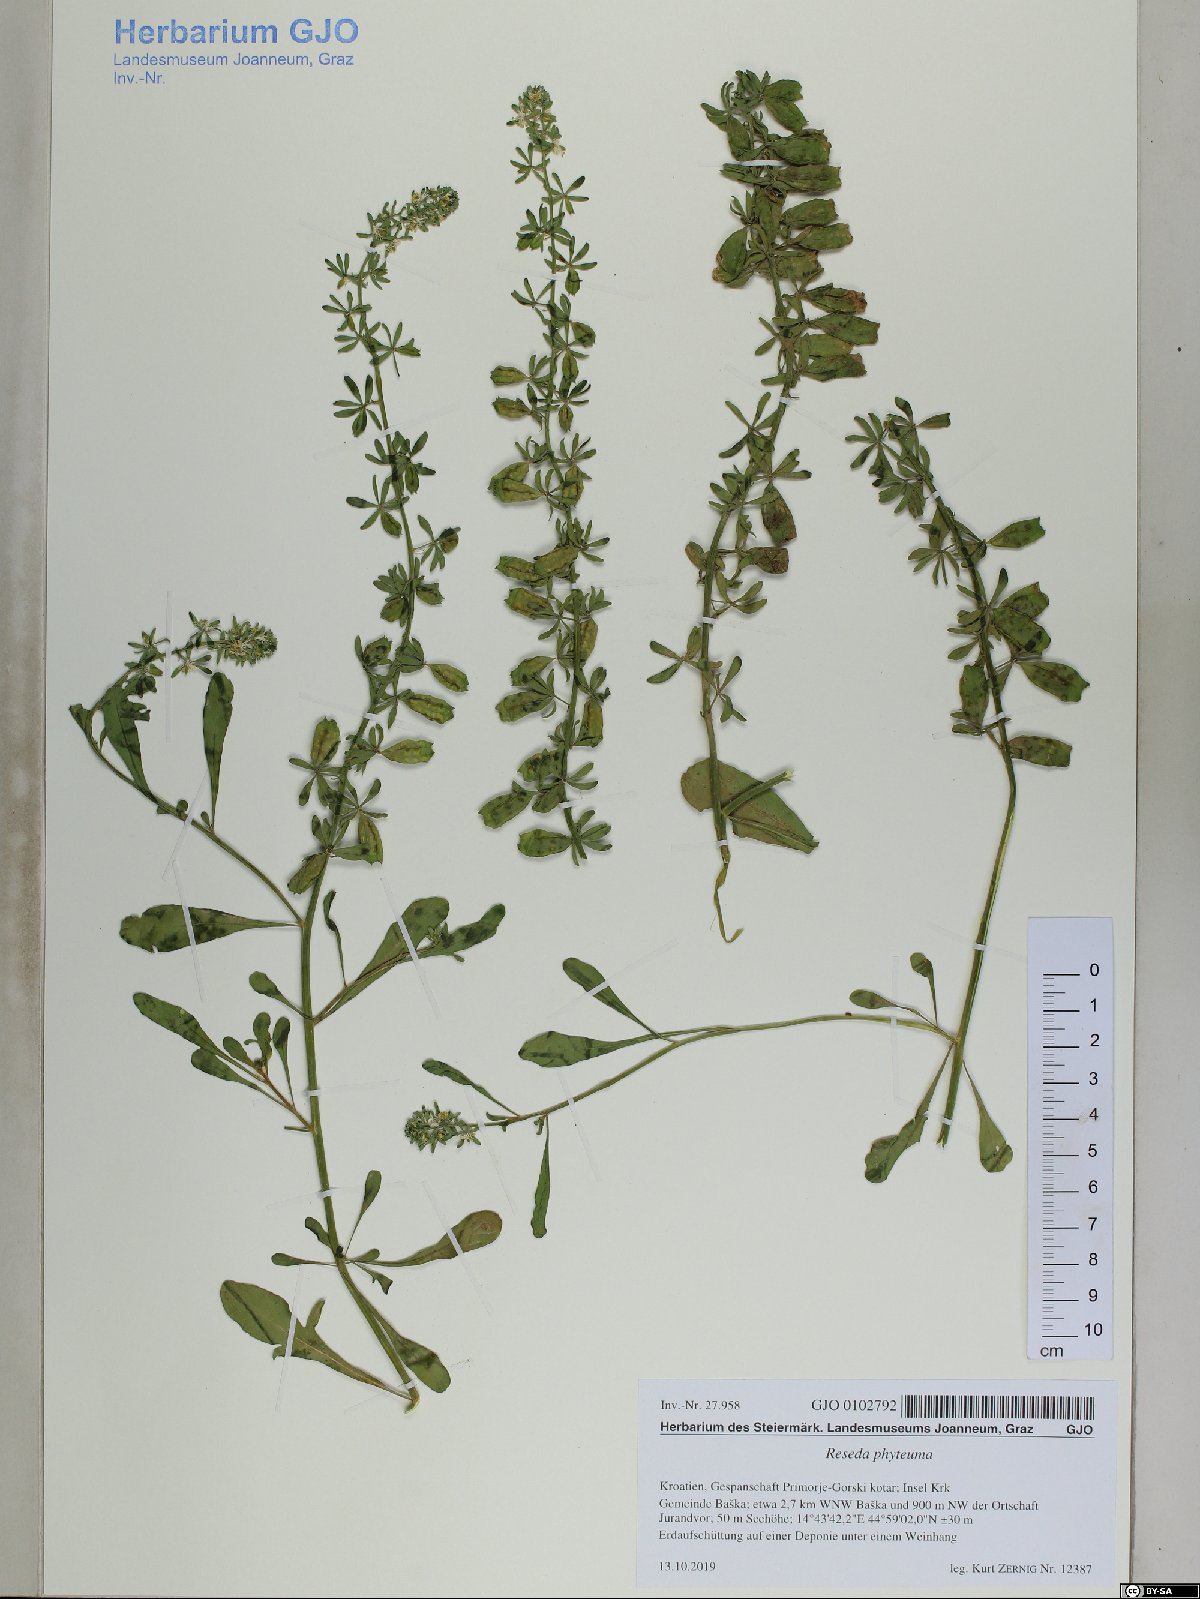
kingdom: Plantae
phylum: Tracheophyta
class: Magnoliopsida
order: Brassicales
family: Resedaceae
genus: Reseda
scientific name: Reseda phyteuma
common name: Corn mignonette
